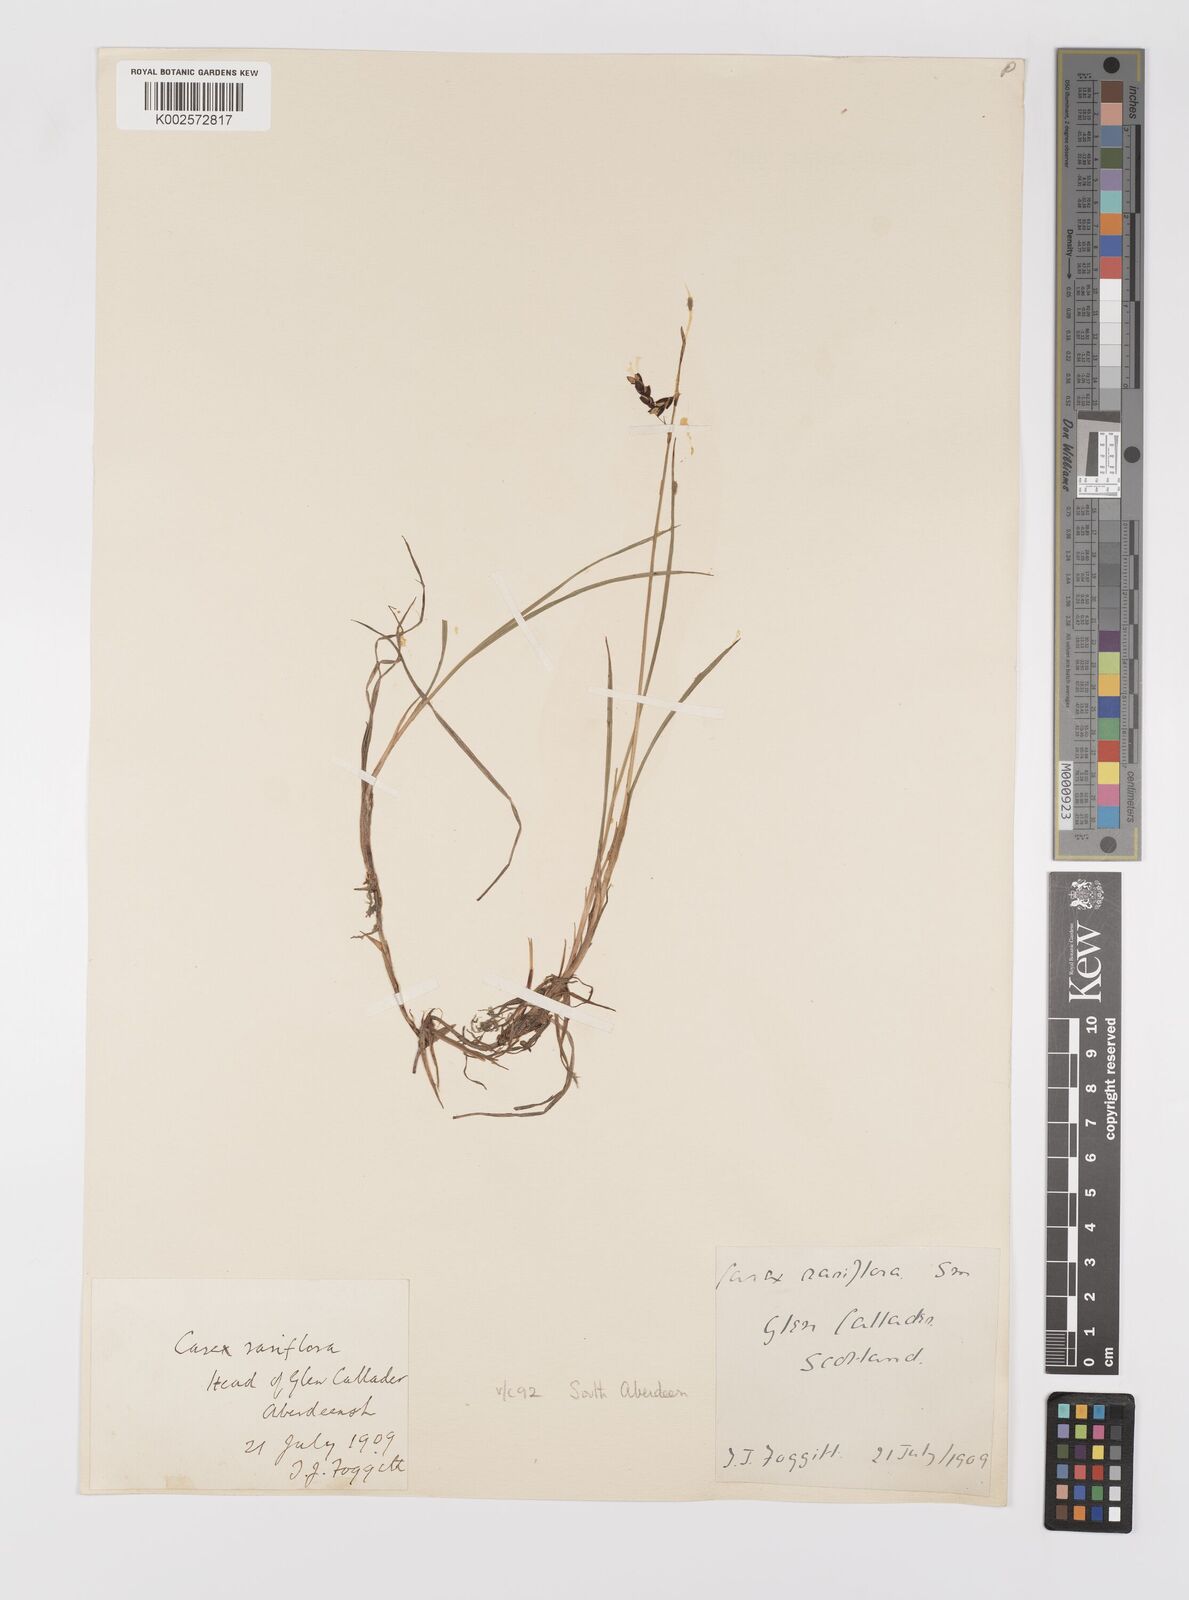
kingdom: Plantae
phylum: Tracheophyta
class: Liliopsida
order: Poales
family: Cyperaceae
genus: Carex
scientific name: Carex rariflora
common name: Loose-flowered alpine sedge
